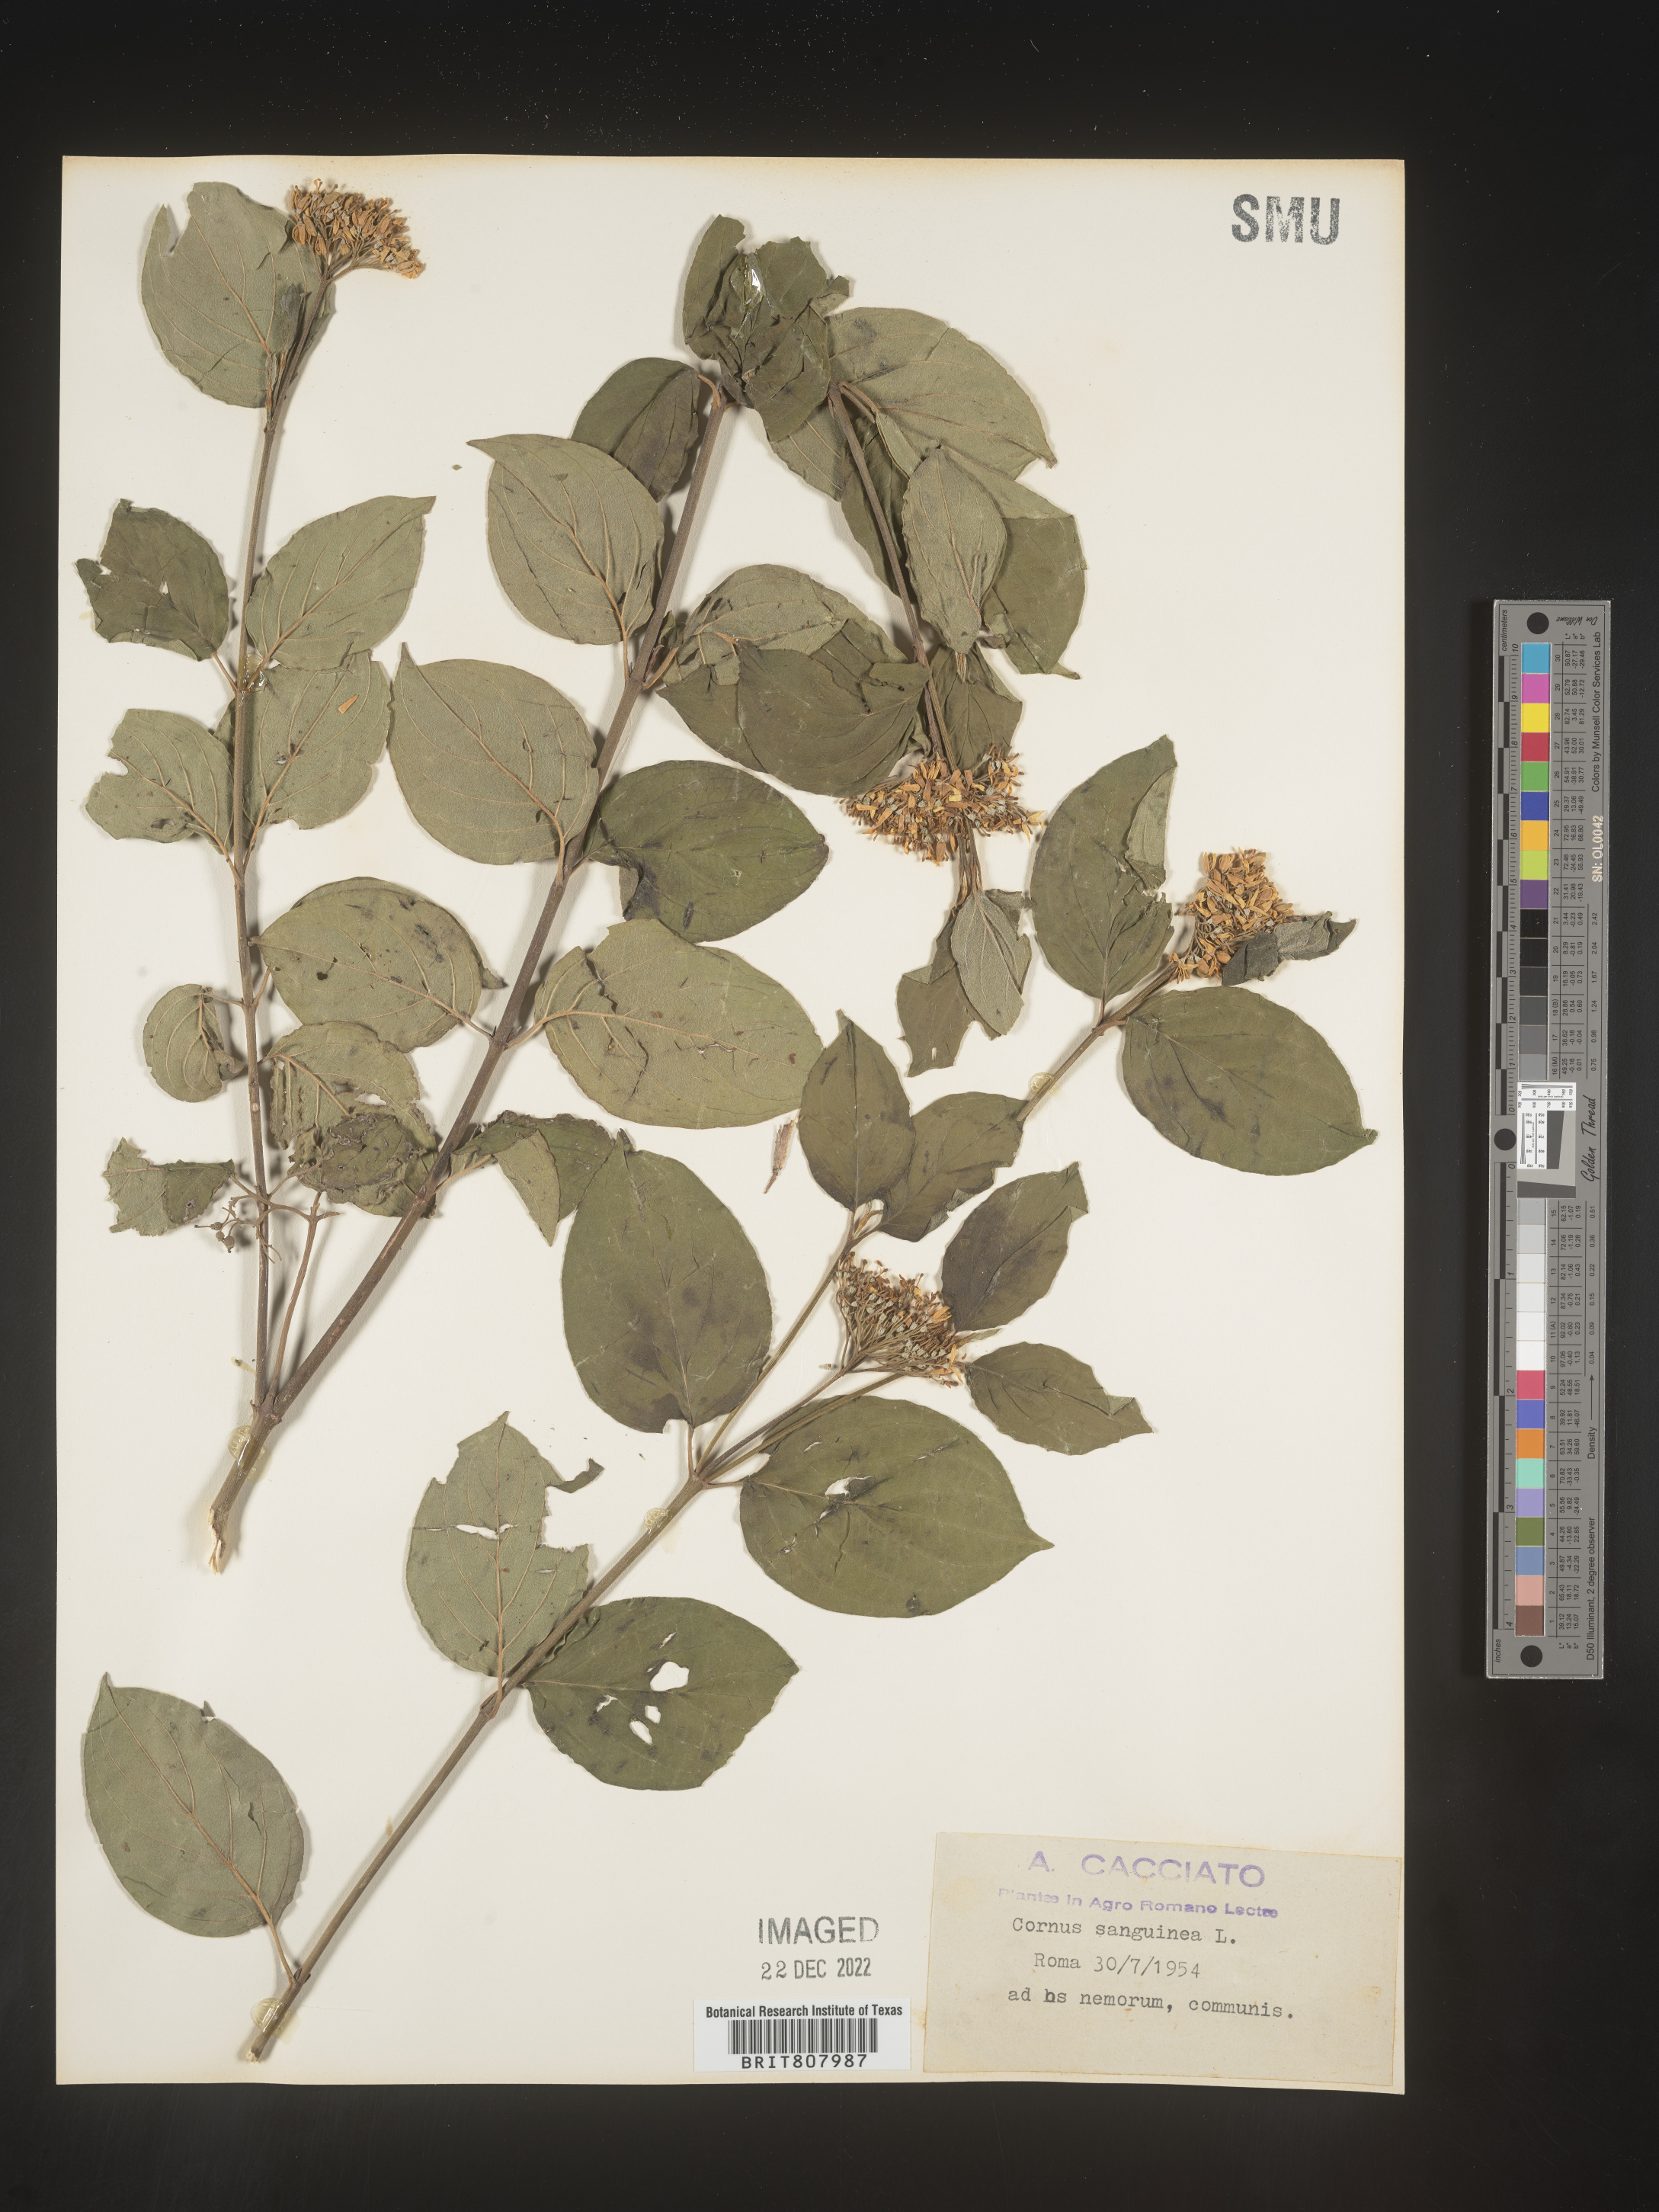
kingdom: Plantae
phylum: Tracheophyta
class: Magnoliopsida
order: Cornales
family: Cornaceae
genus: Cornus
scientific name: Cornus
